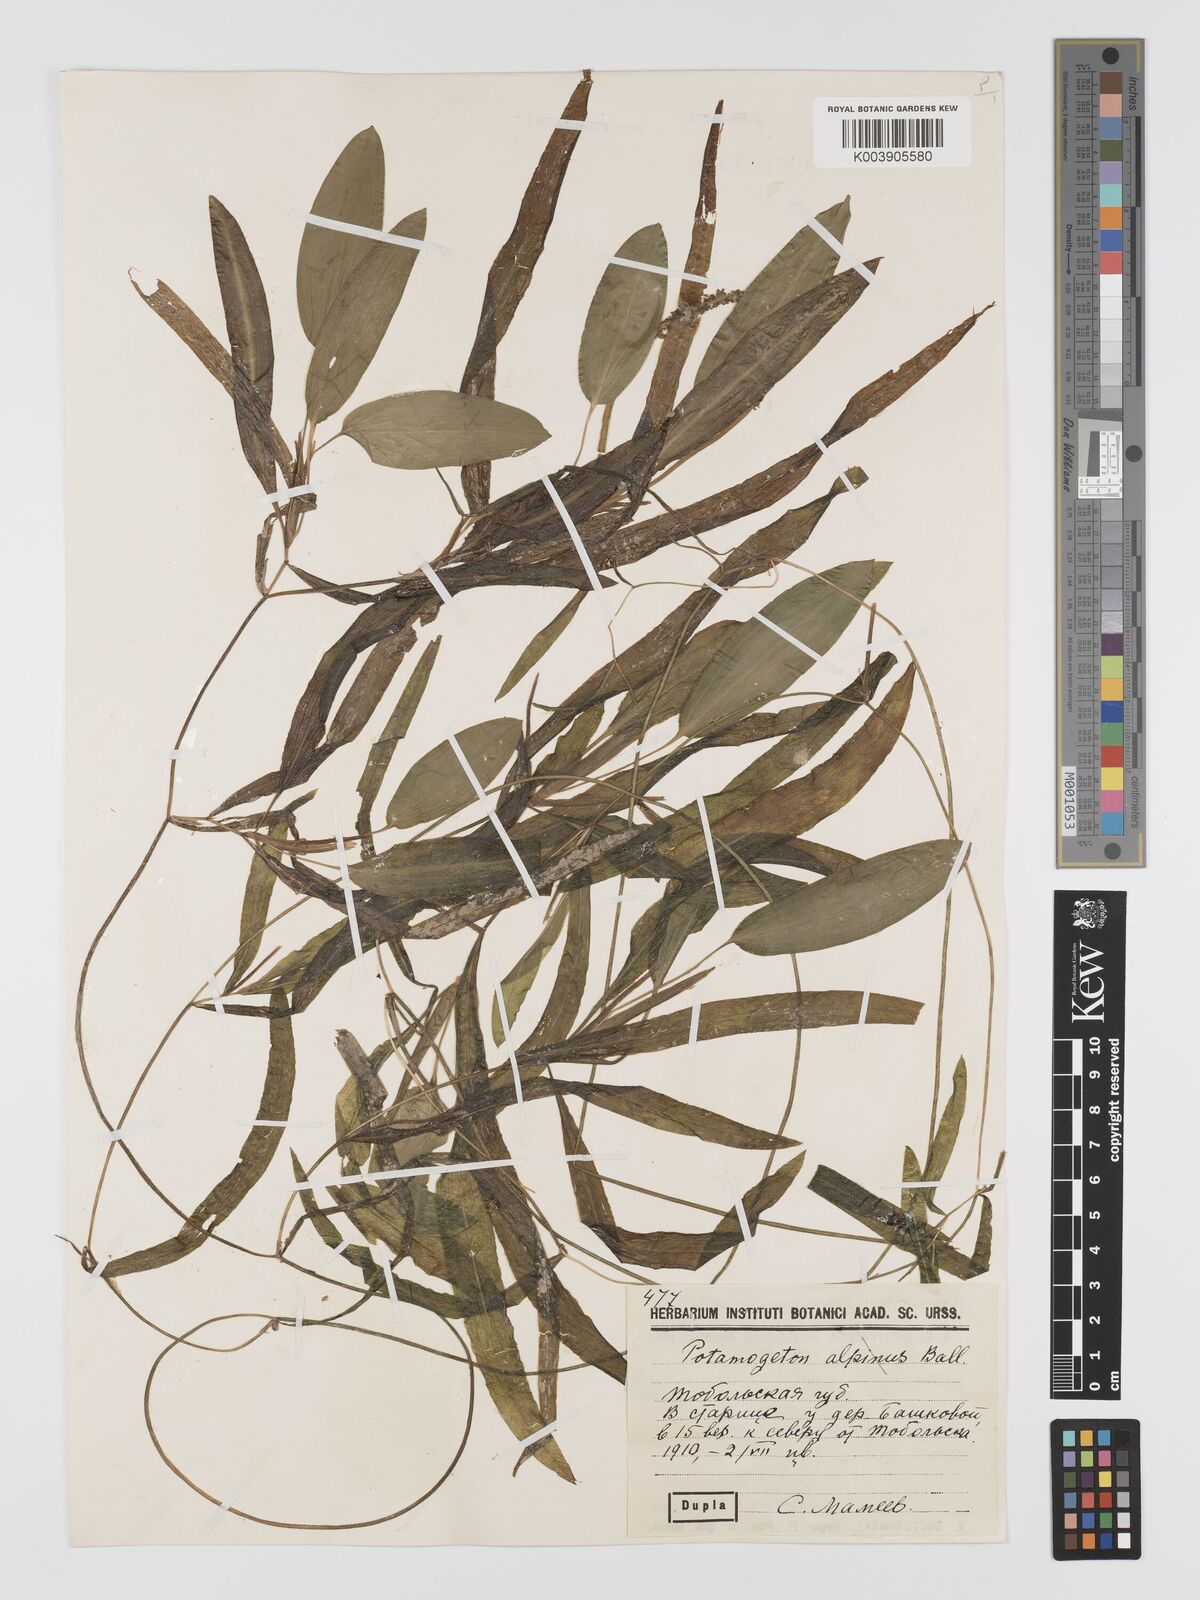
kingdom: Plantae
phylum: Tracheophyta
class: Liliopsida
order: Alismatales
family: Potamogetonaceae
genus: Potamogeton
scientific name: Potamogeton gramineus
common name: Various-leaved pondweed
